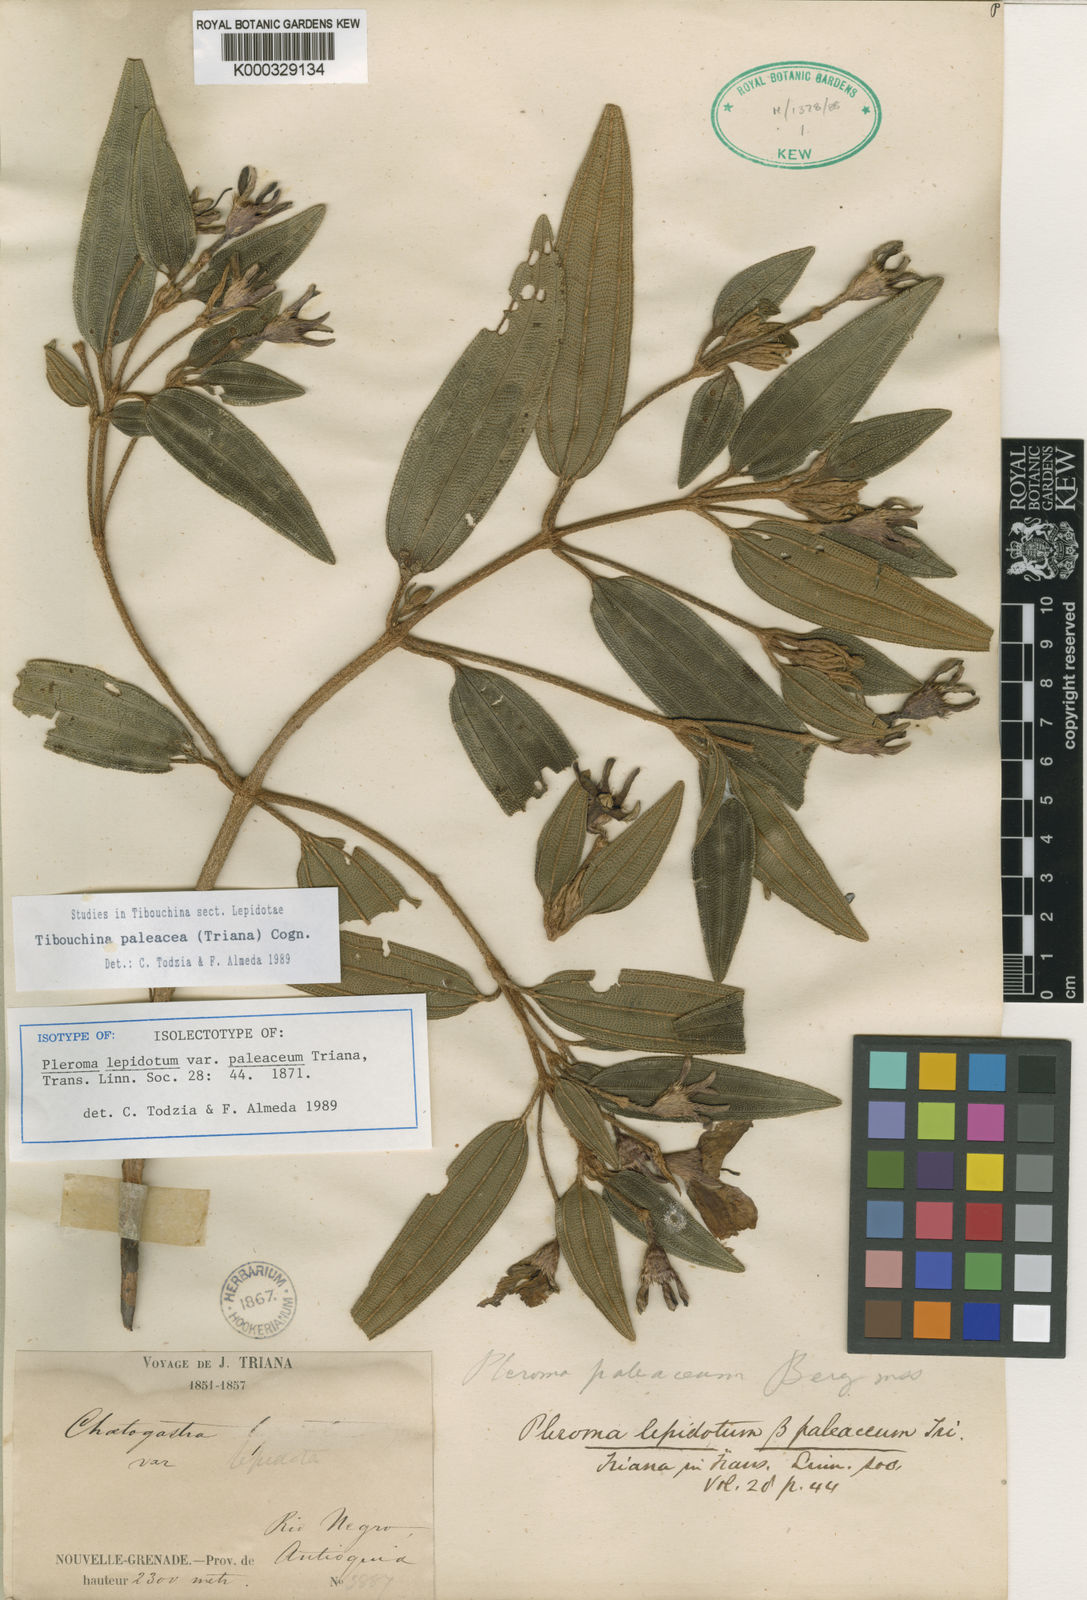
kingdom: Plantae
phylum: Tracheophyta
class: Magnoliopsida
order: Myrtales
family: Melastomataceae
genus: Pleroma
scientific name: Pleroma paleaceum
